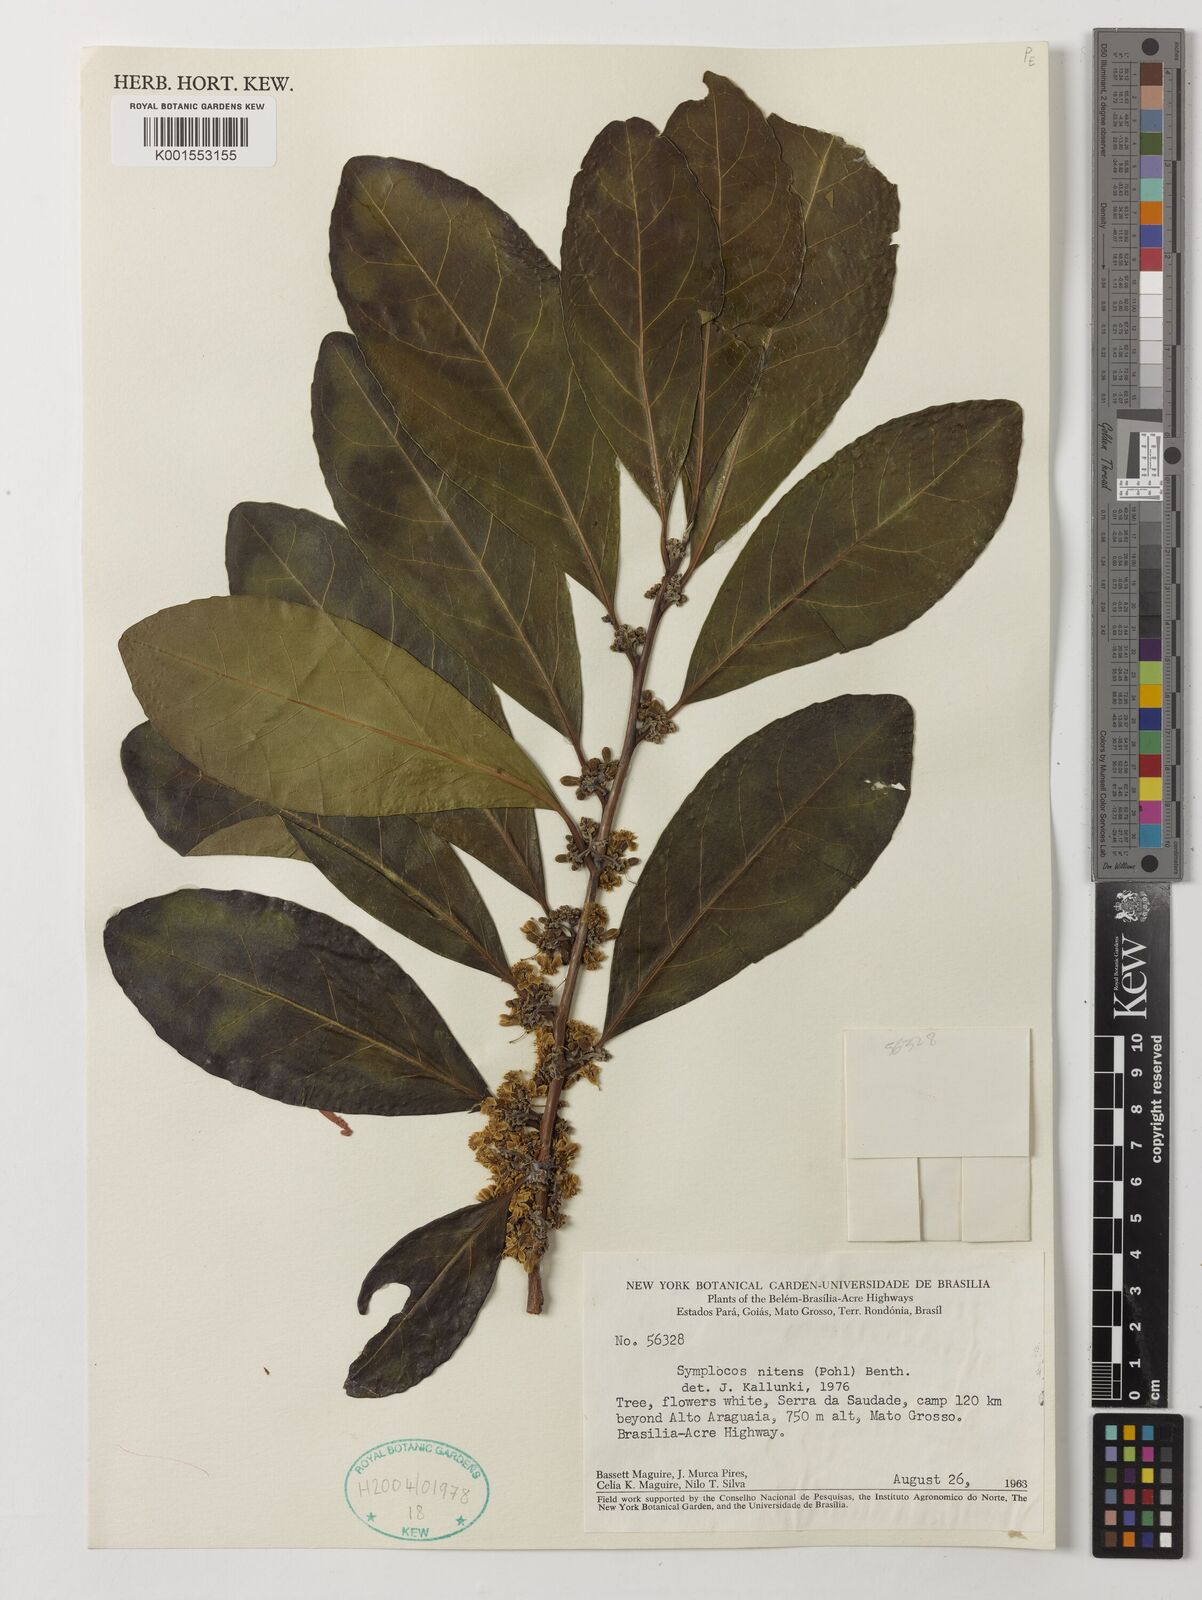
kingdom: Plantae
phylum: Tracheophyta
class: Magnoliopsida
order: Ericales
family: Symplocaceae
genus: Symplocos
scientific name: Symplocos nitens
